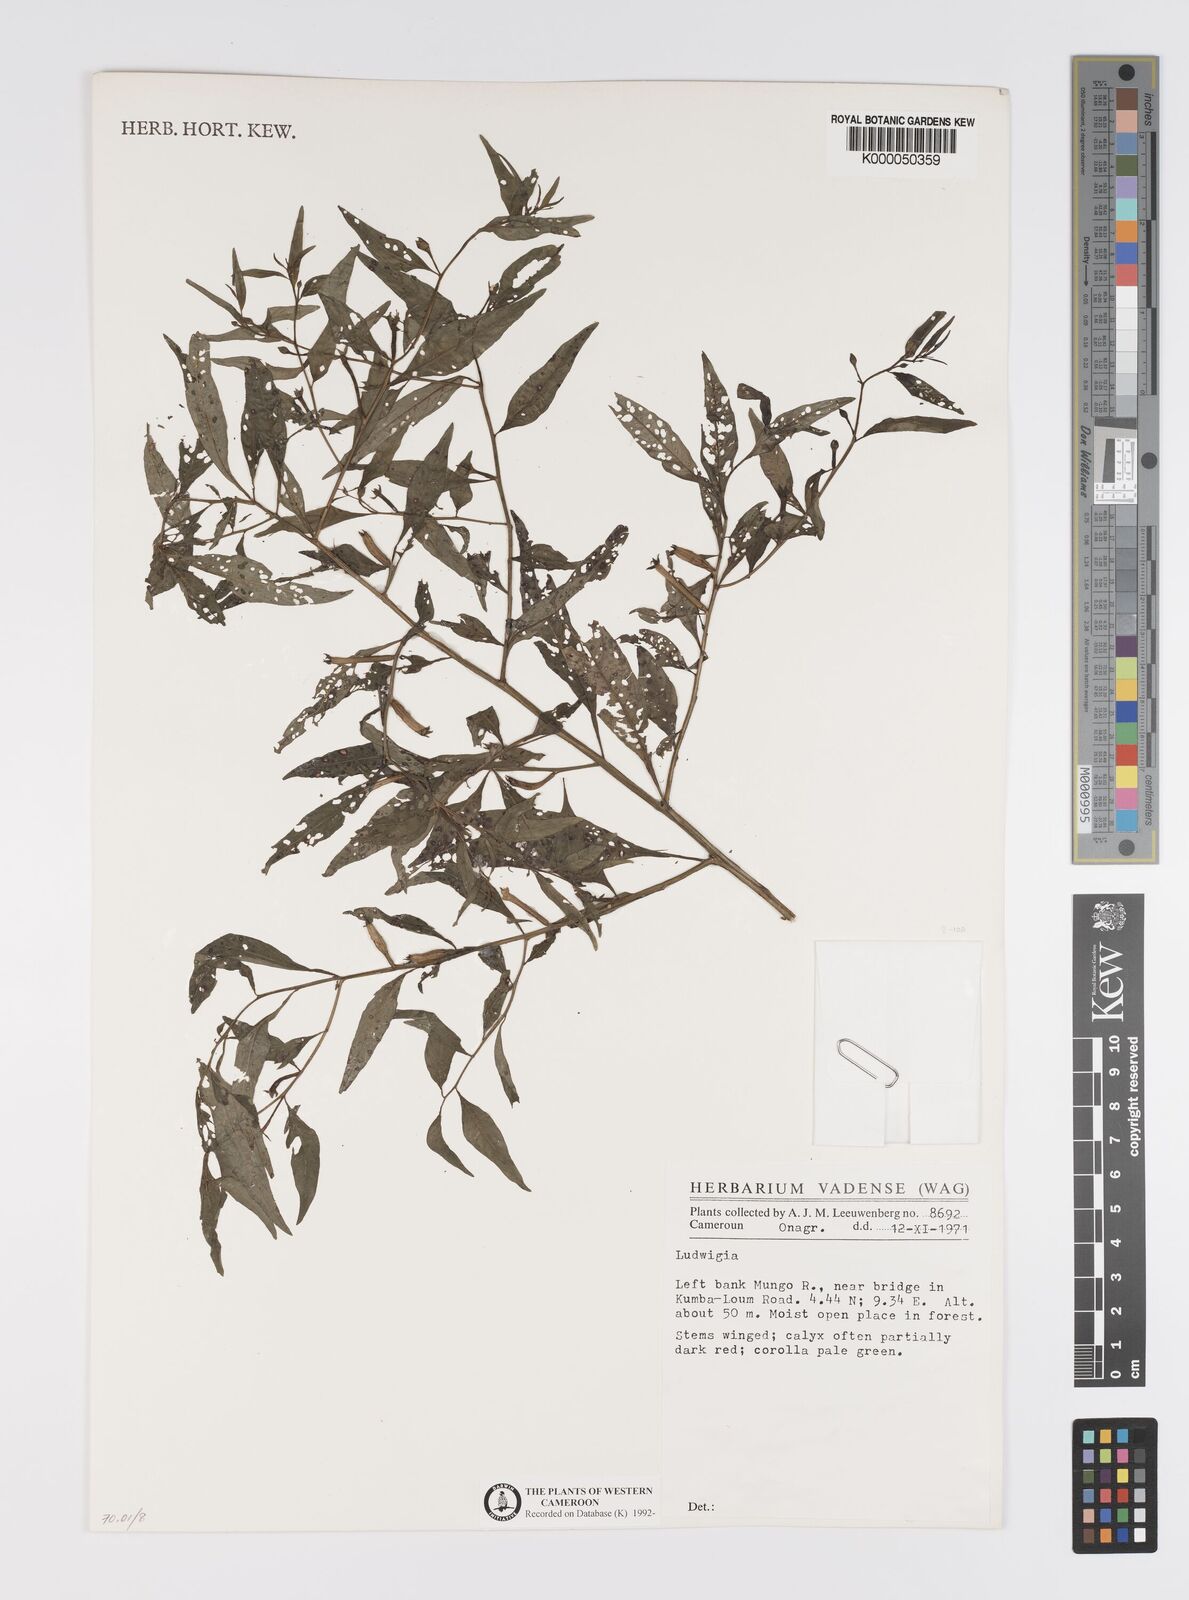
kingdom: Plantae
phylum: Tracheophyta
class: Magnoliopsida
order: Myrtales
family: Onagraceae
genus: Ludwigia
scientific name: Ludwigia
